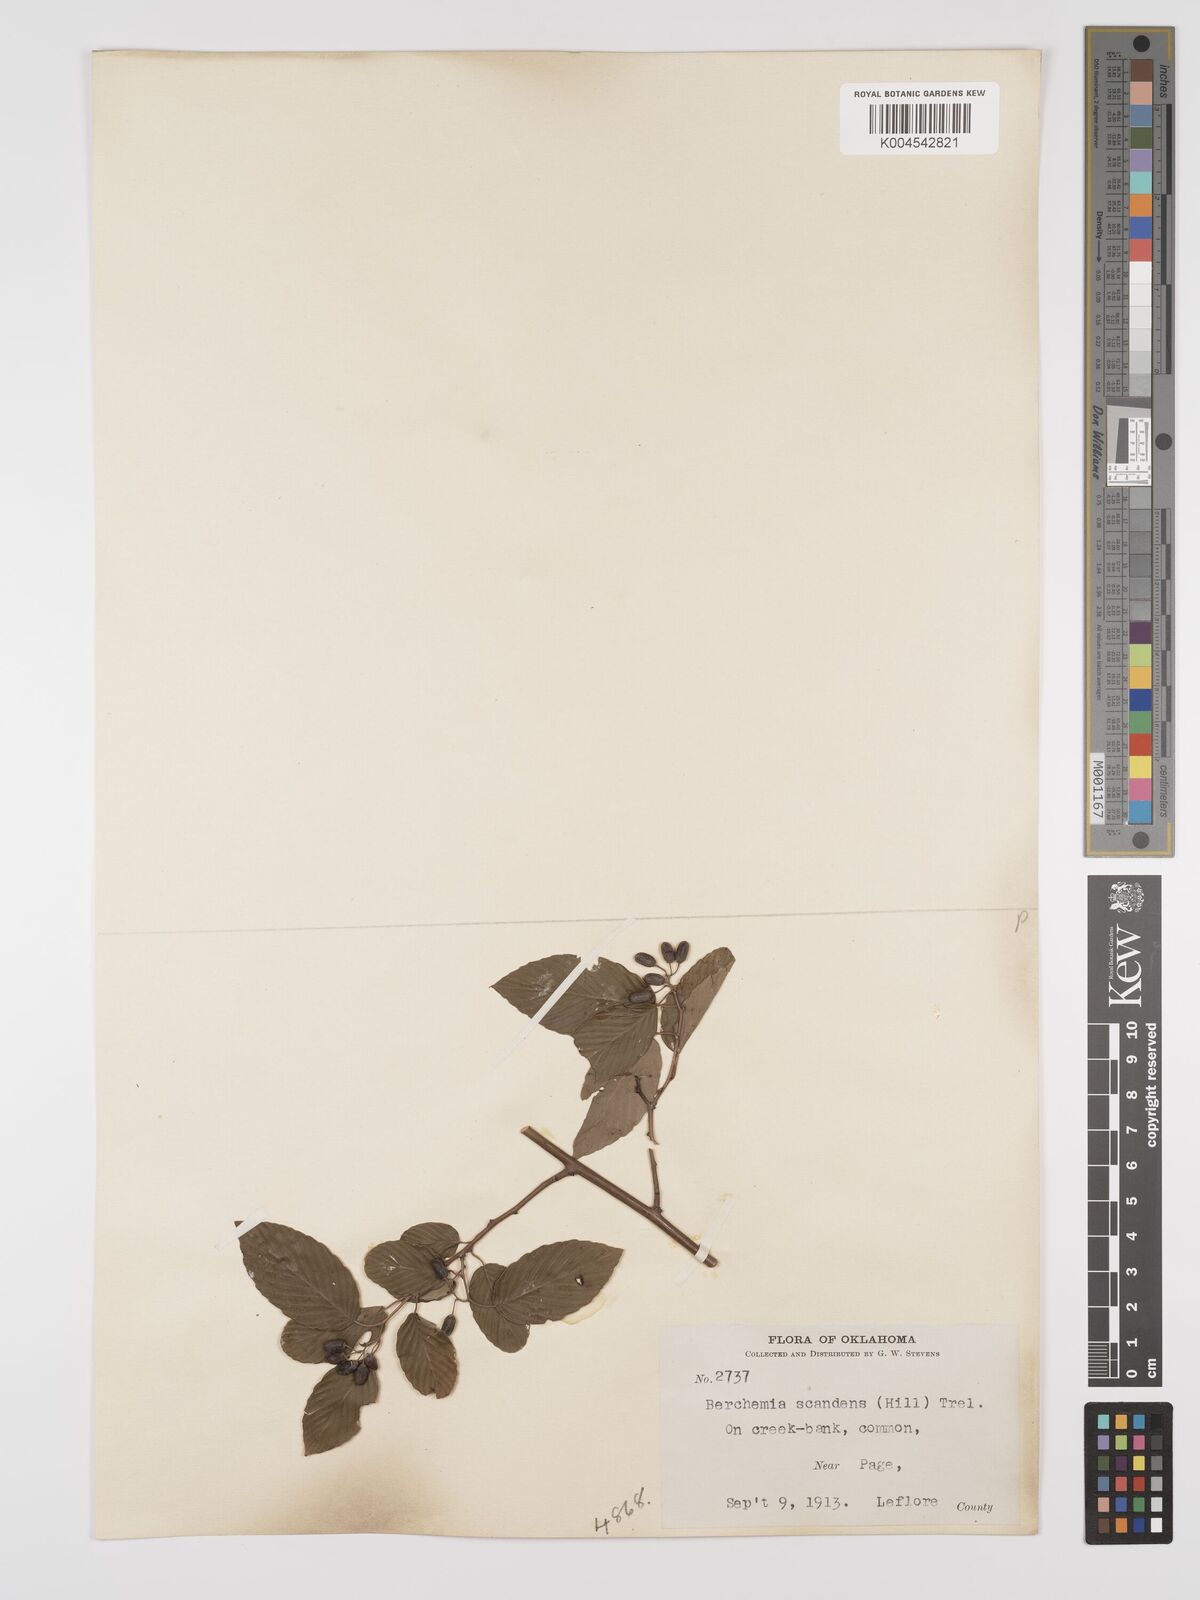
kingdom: Plantae
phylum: Tracheophyta
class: Magnoliopsida
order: Rosales
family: Rhamnaceae
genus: Berchemia
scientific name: Berchemia scandens
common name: Supplejack
